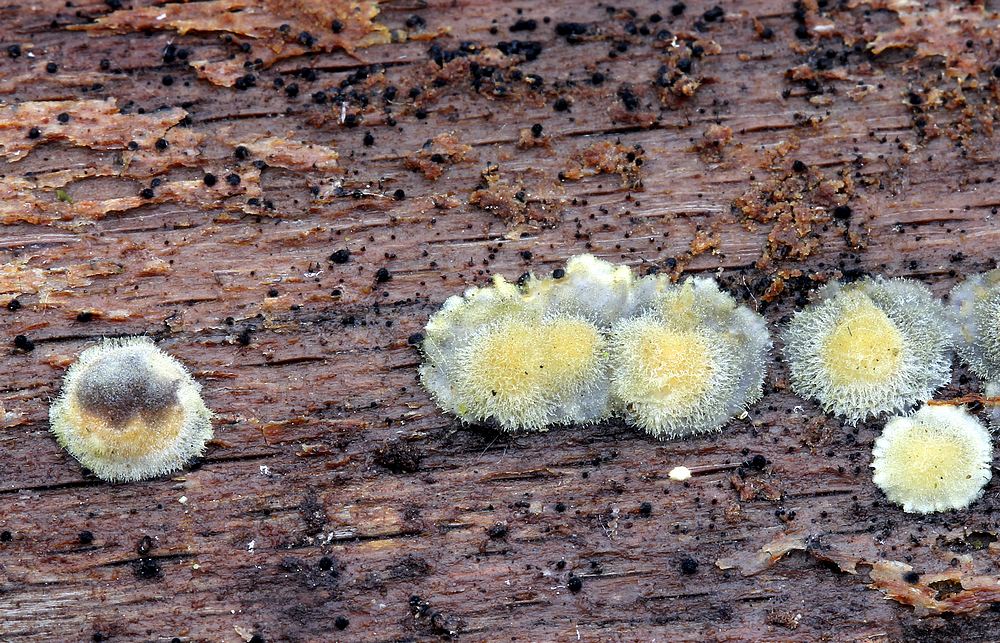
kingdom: Fungi
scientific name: Fungi
